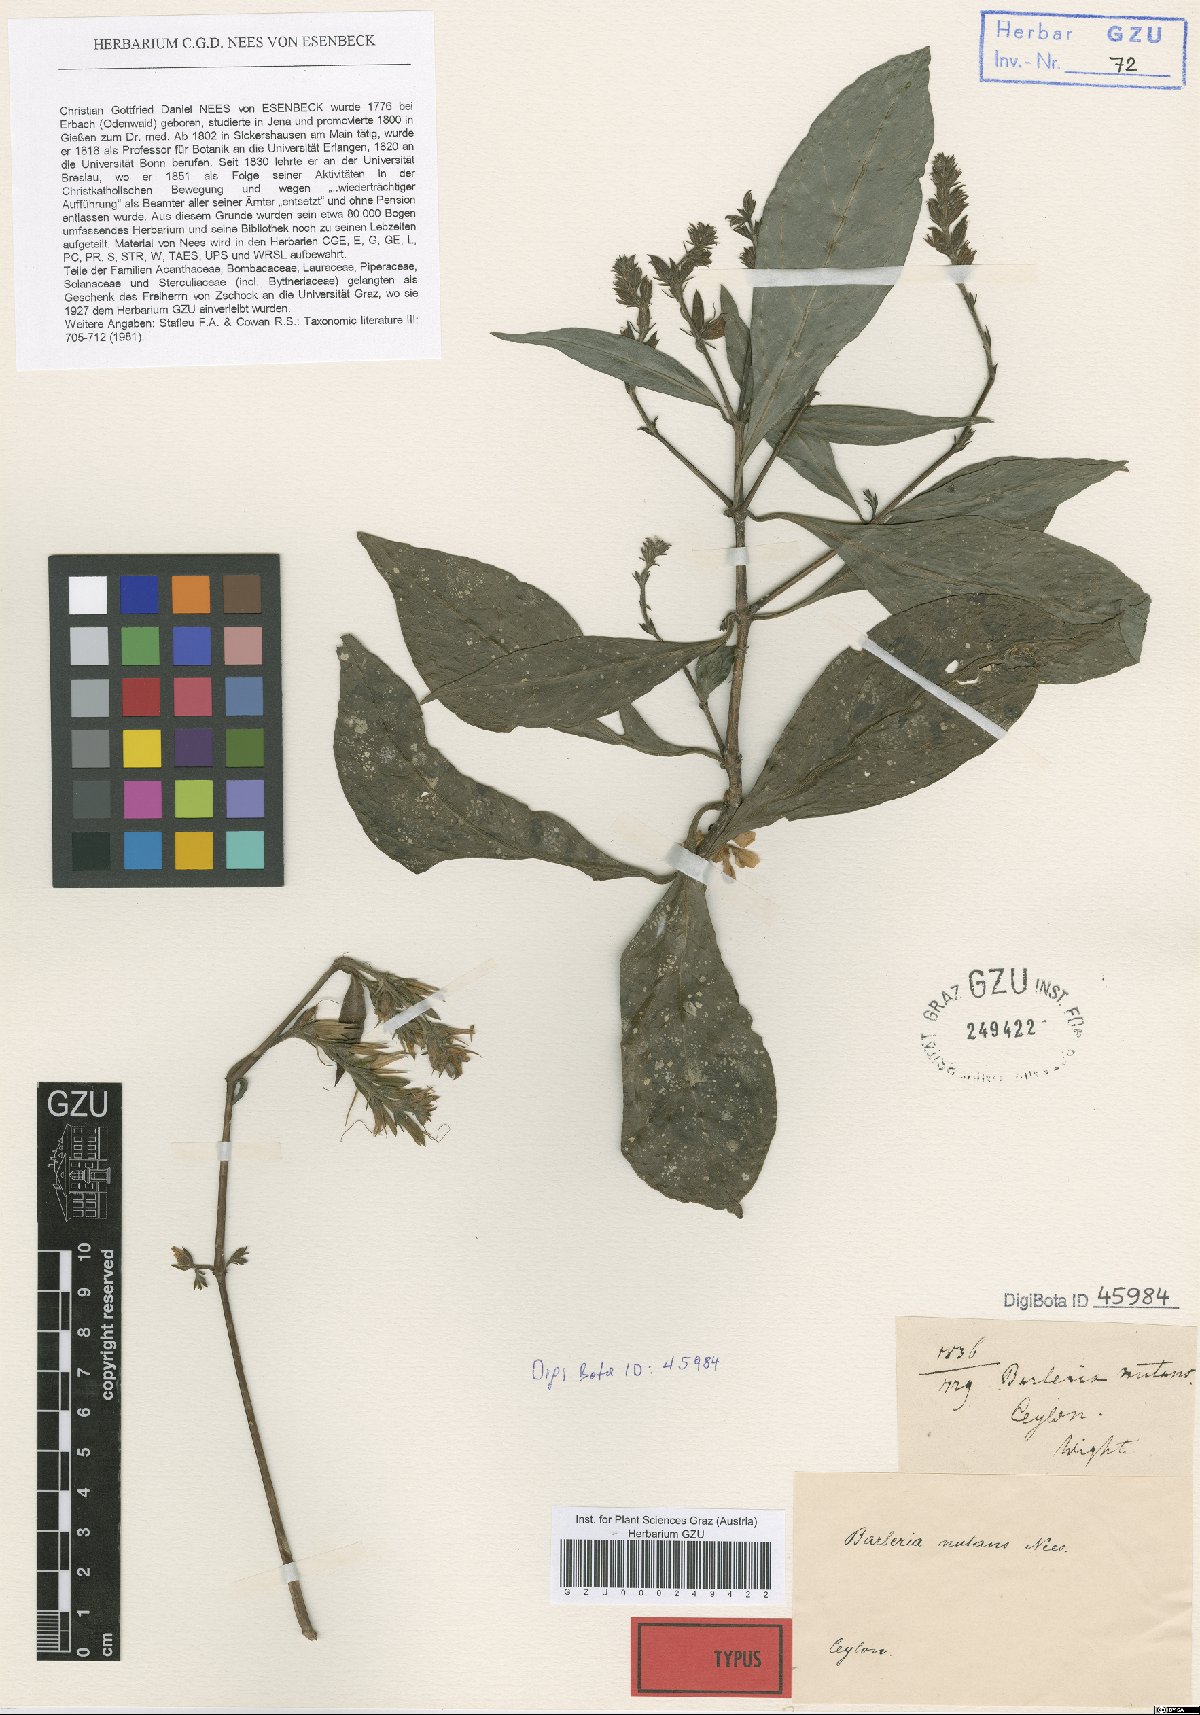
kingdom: Plantae
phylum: Tracheophyta
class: Magnoliopsida
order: Lamiales
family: Acanthaceae
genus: Barleria
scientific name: Barleria courtallica
